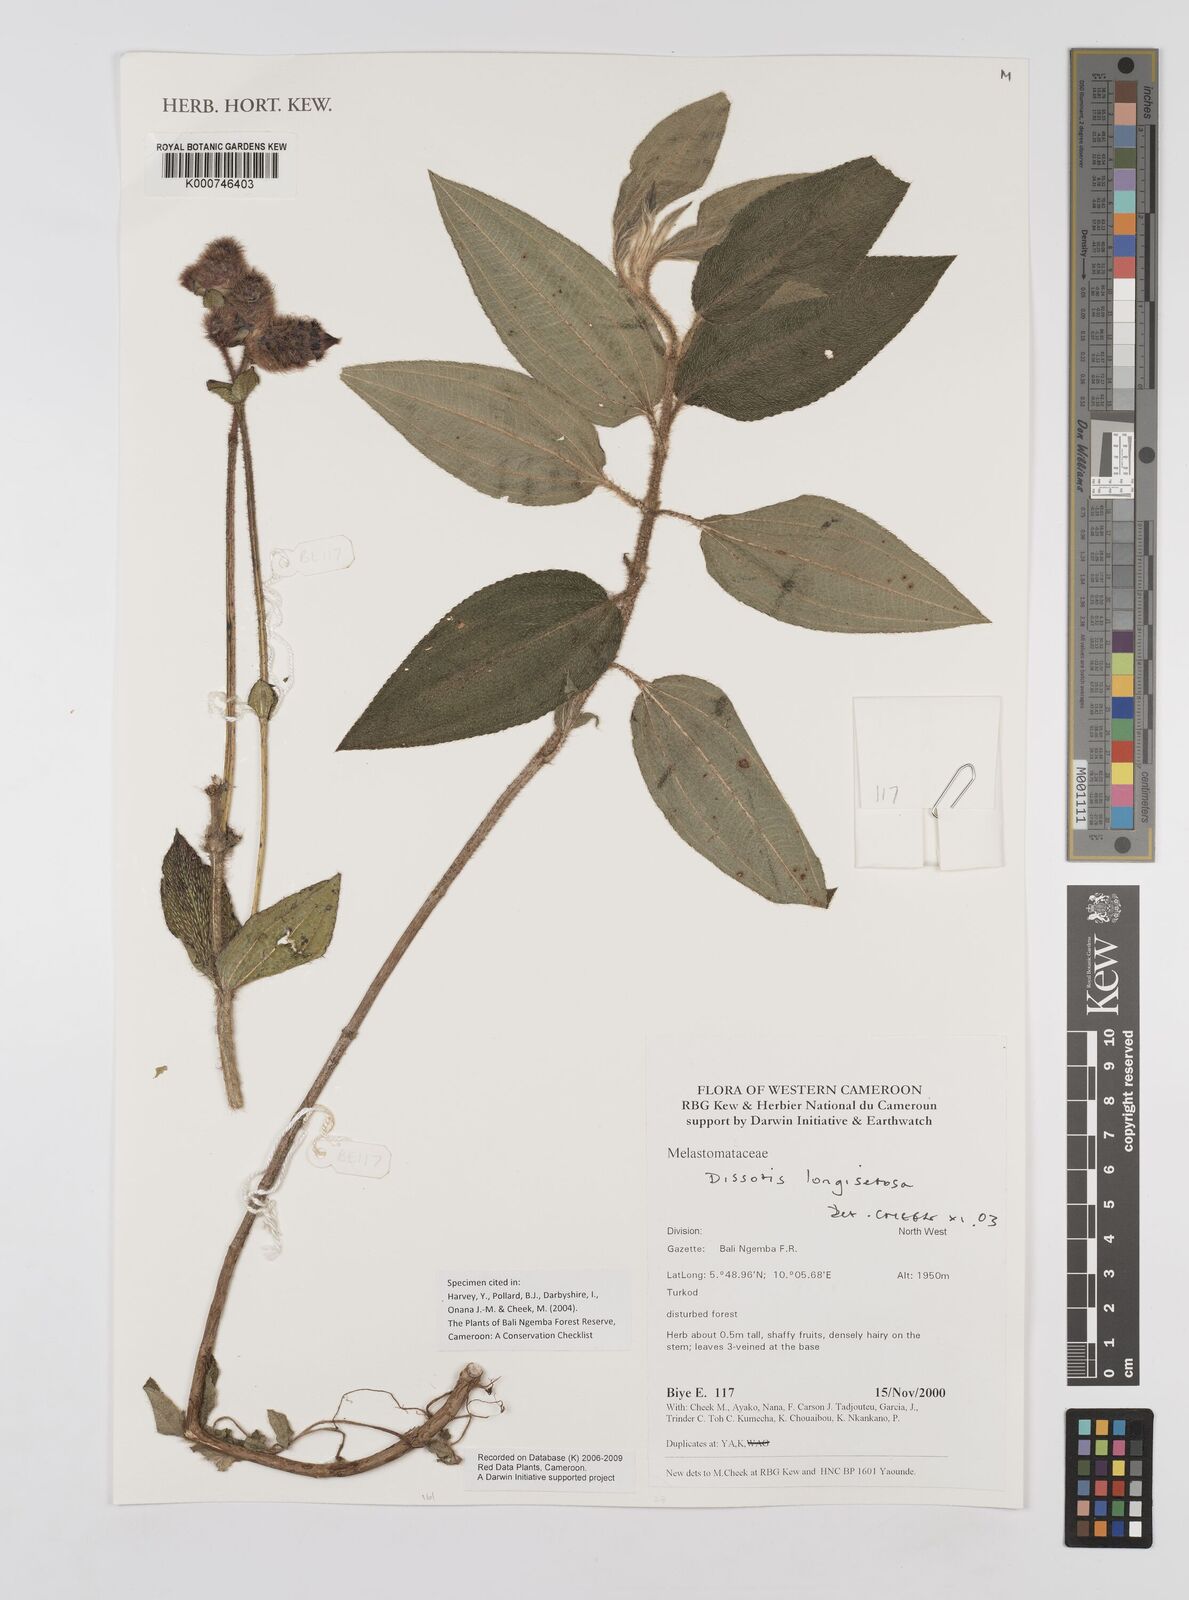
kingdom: Plantae
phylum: Tracheophyta
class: Magnoliopsida
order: Myrtales
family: Melastomataceae
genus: Dissotis
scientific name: Dissotis longisetosa
